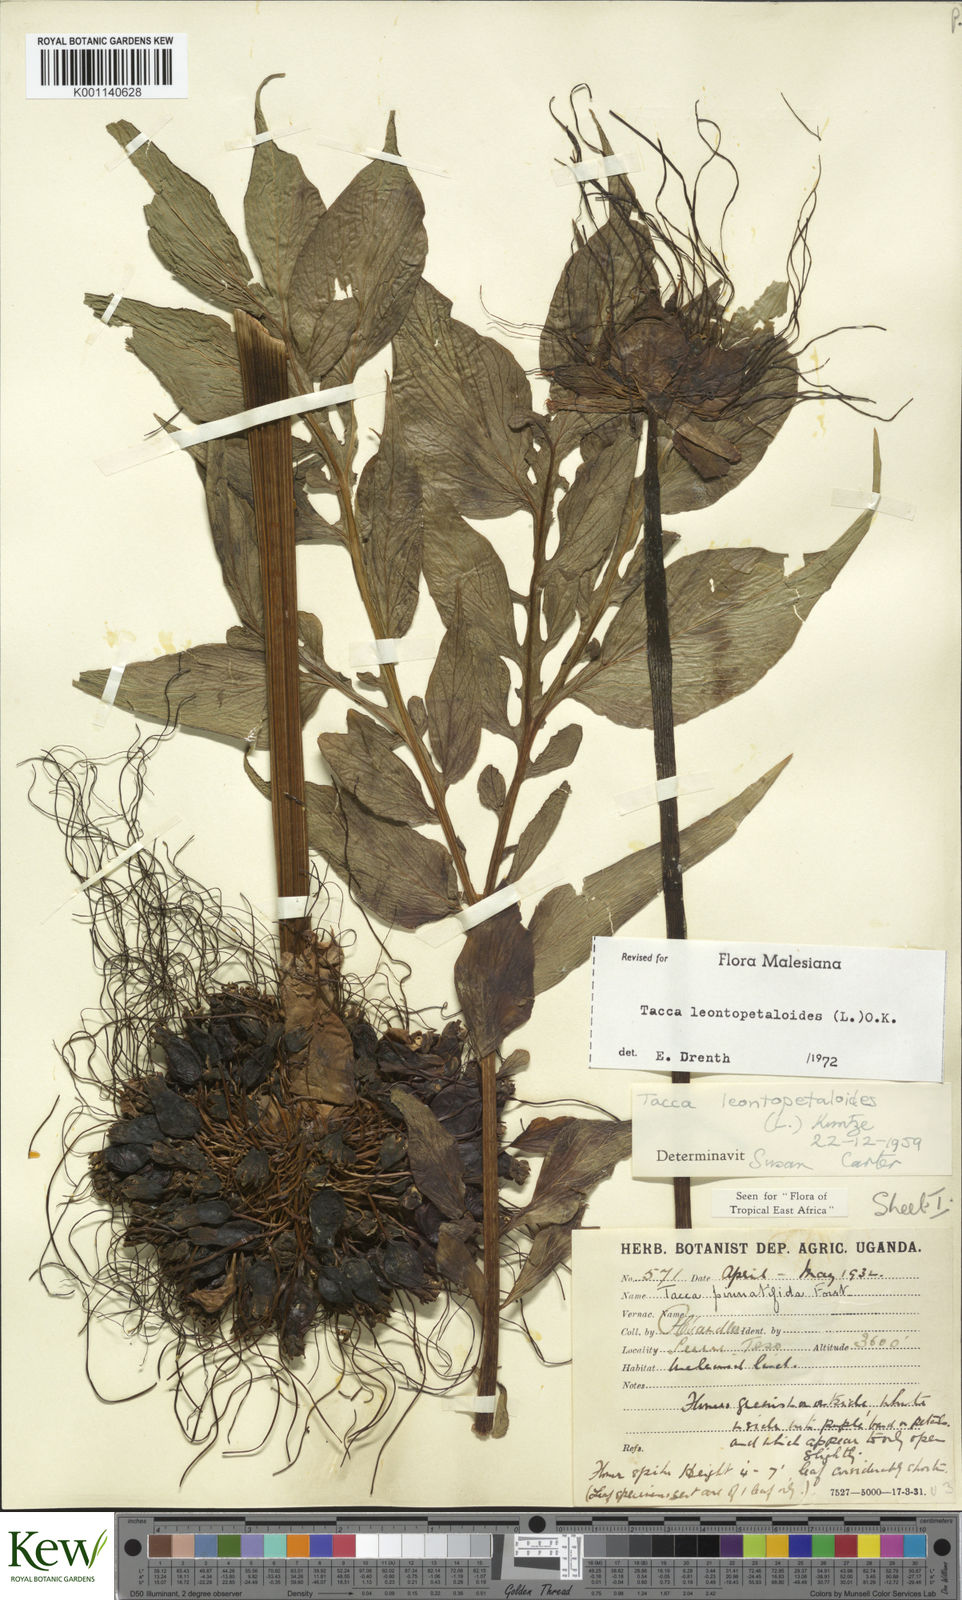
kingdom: Plantae
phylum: Tracheophyta
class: Liliopsida
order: Dioscoreales
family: Dioscoreaceae
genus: Tacca
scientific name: Tacca leontopetaloides
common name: Arrowroot
